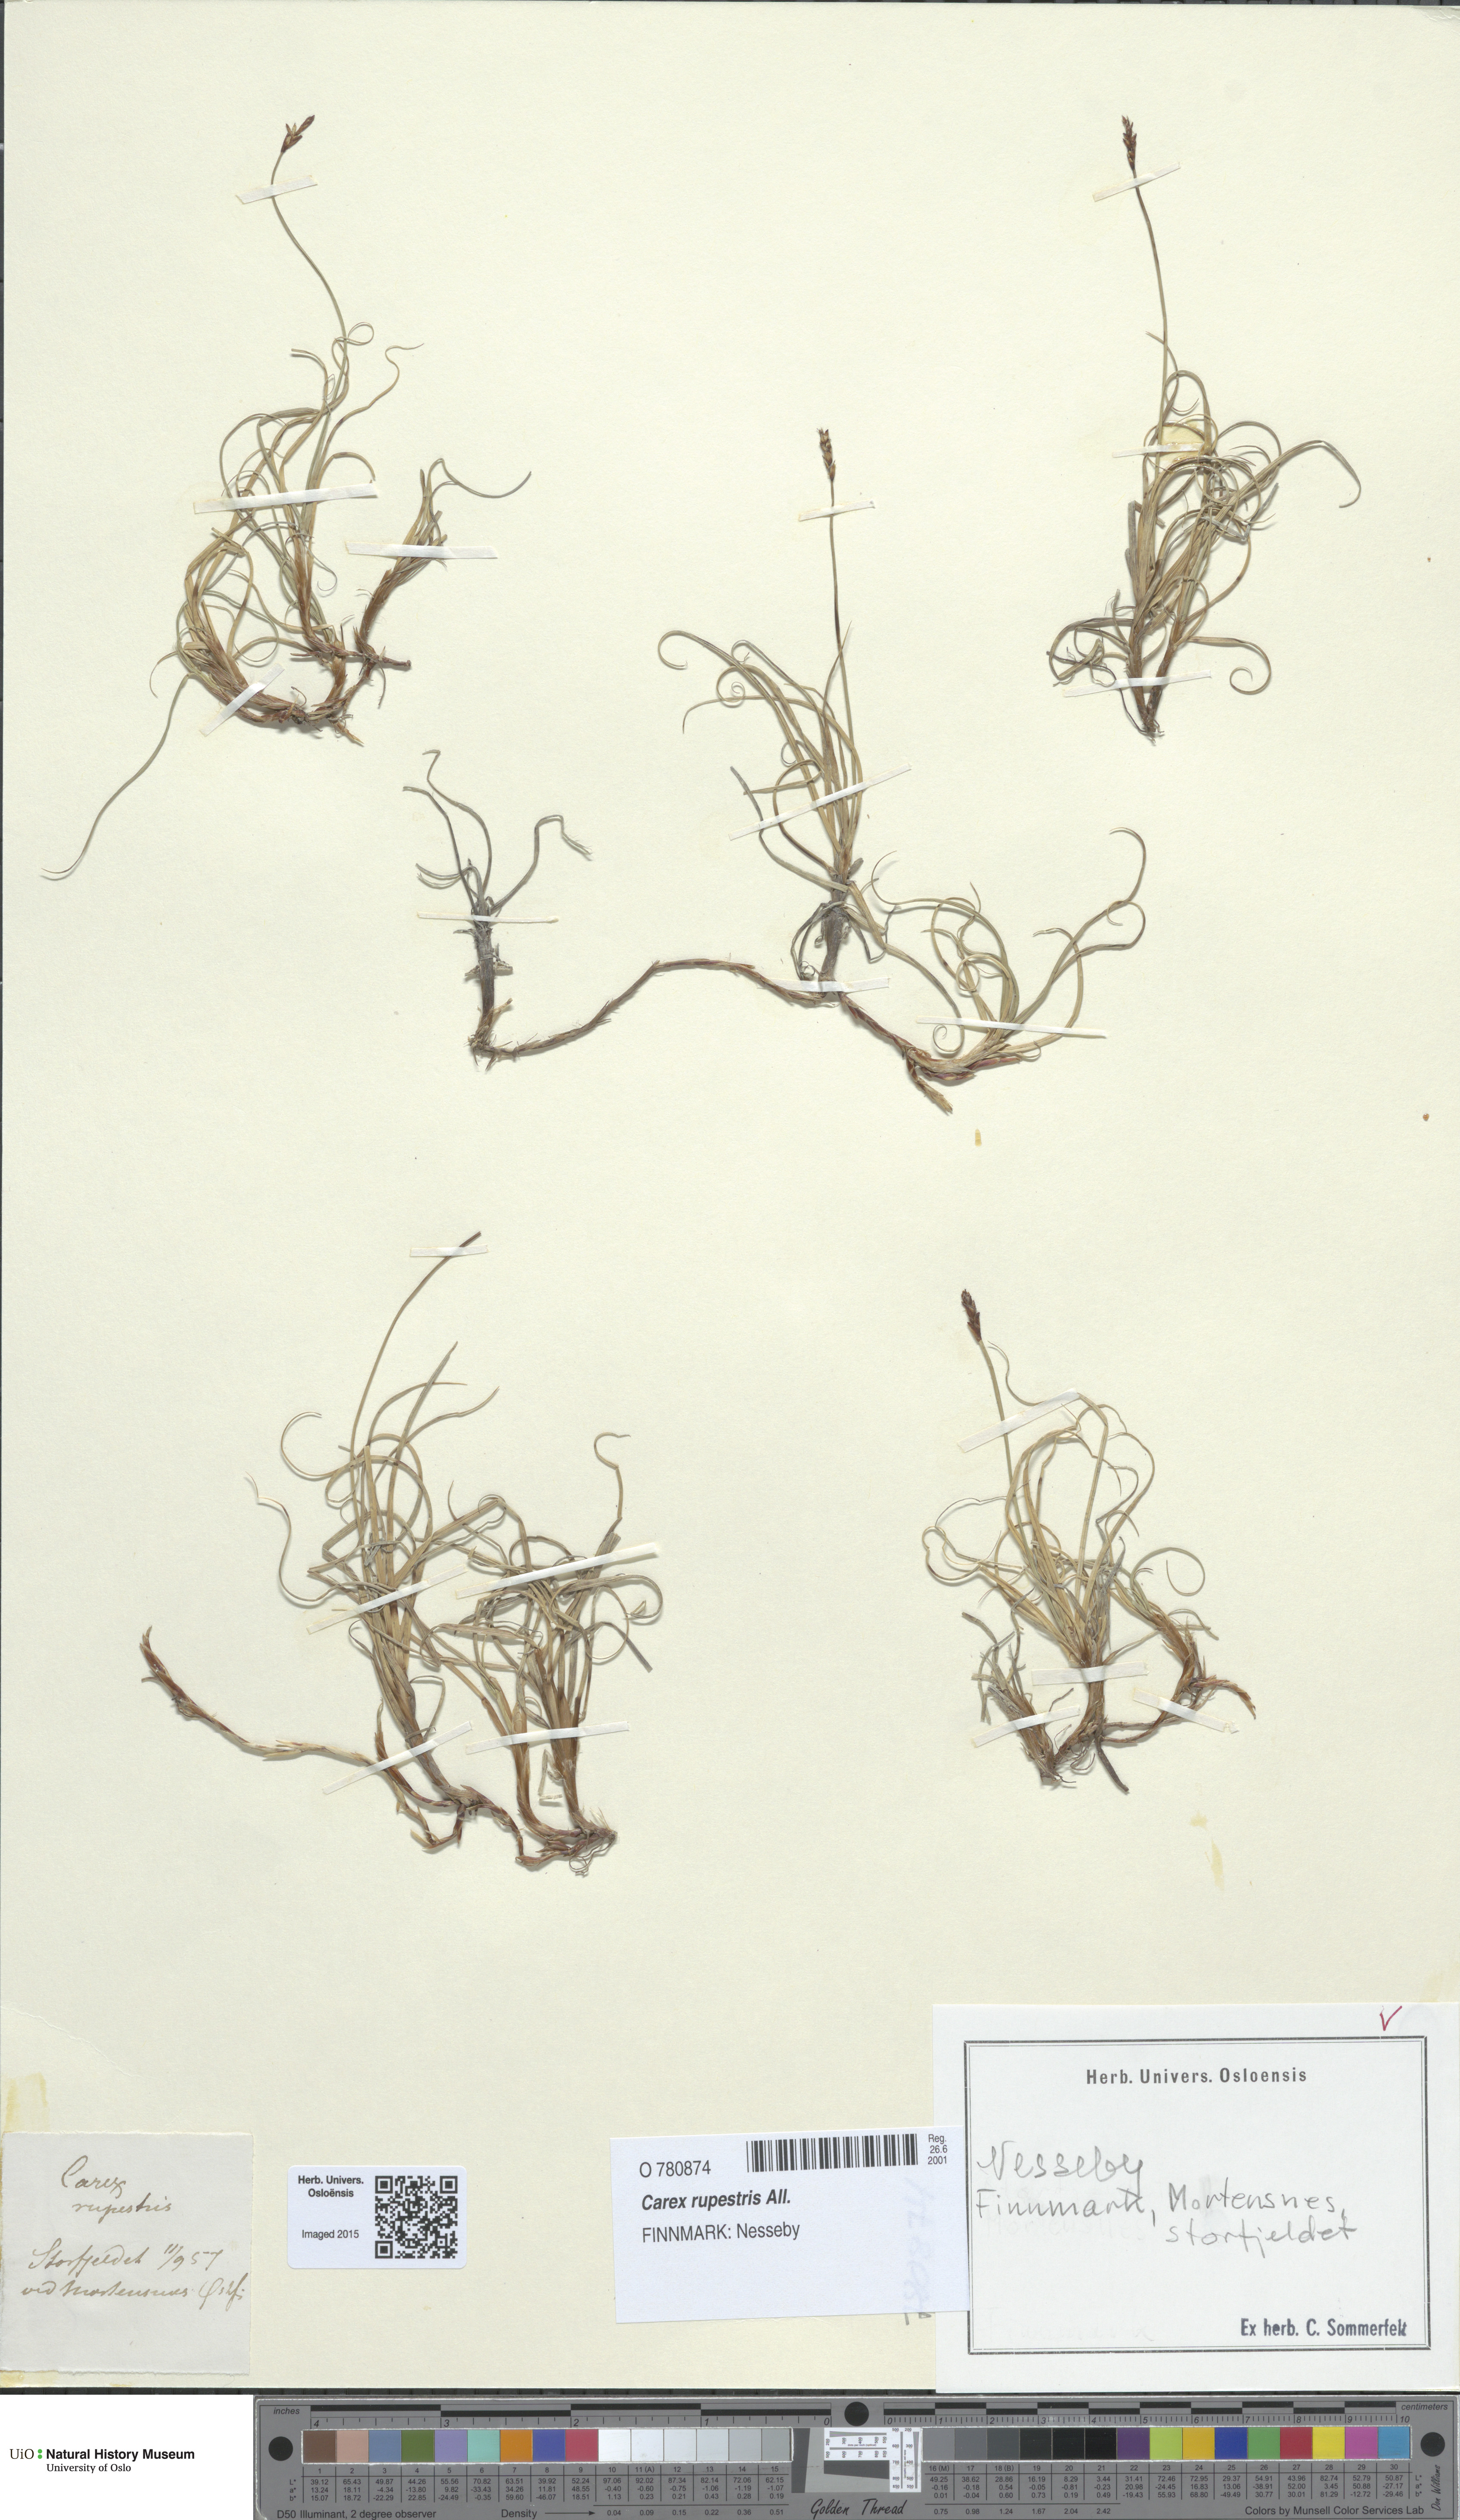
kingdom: Plantae
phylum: Tracheophyta
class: Liliopsida
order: Poales
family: Cyperaceae
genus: Carex
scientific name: Carex rupestris
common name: Rock sedge
